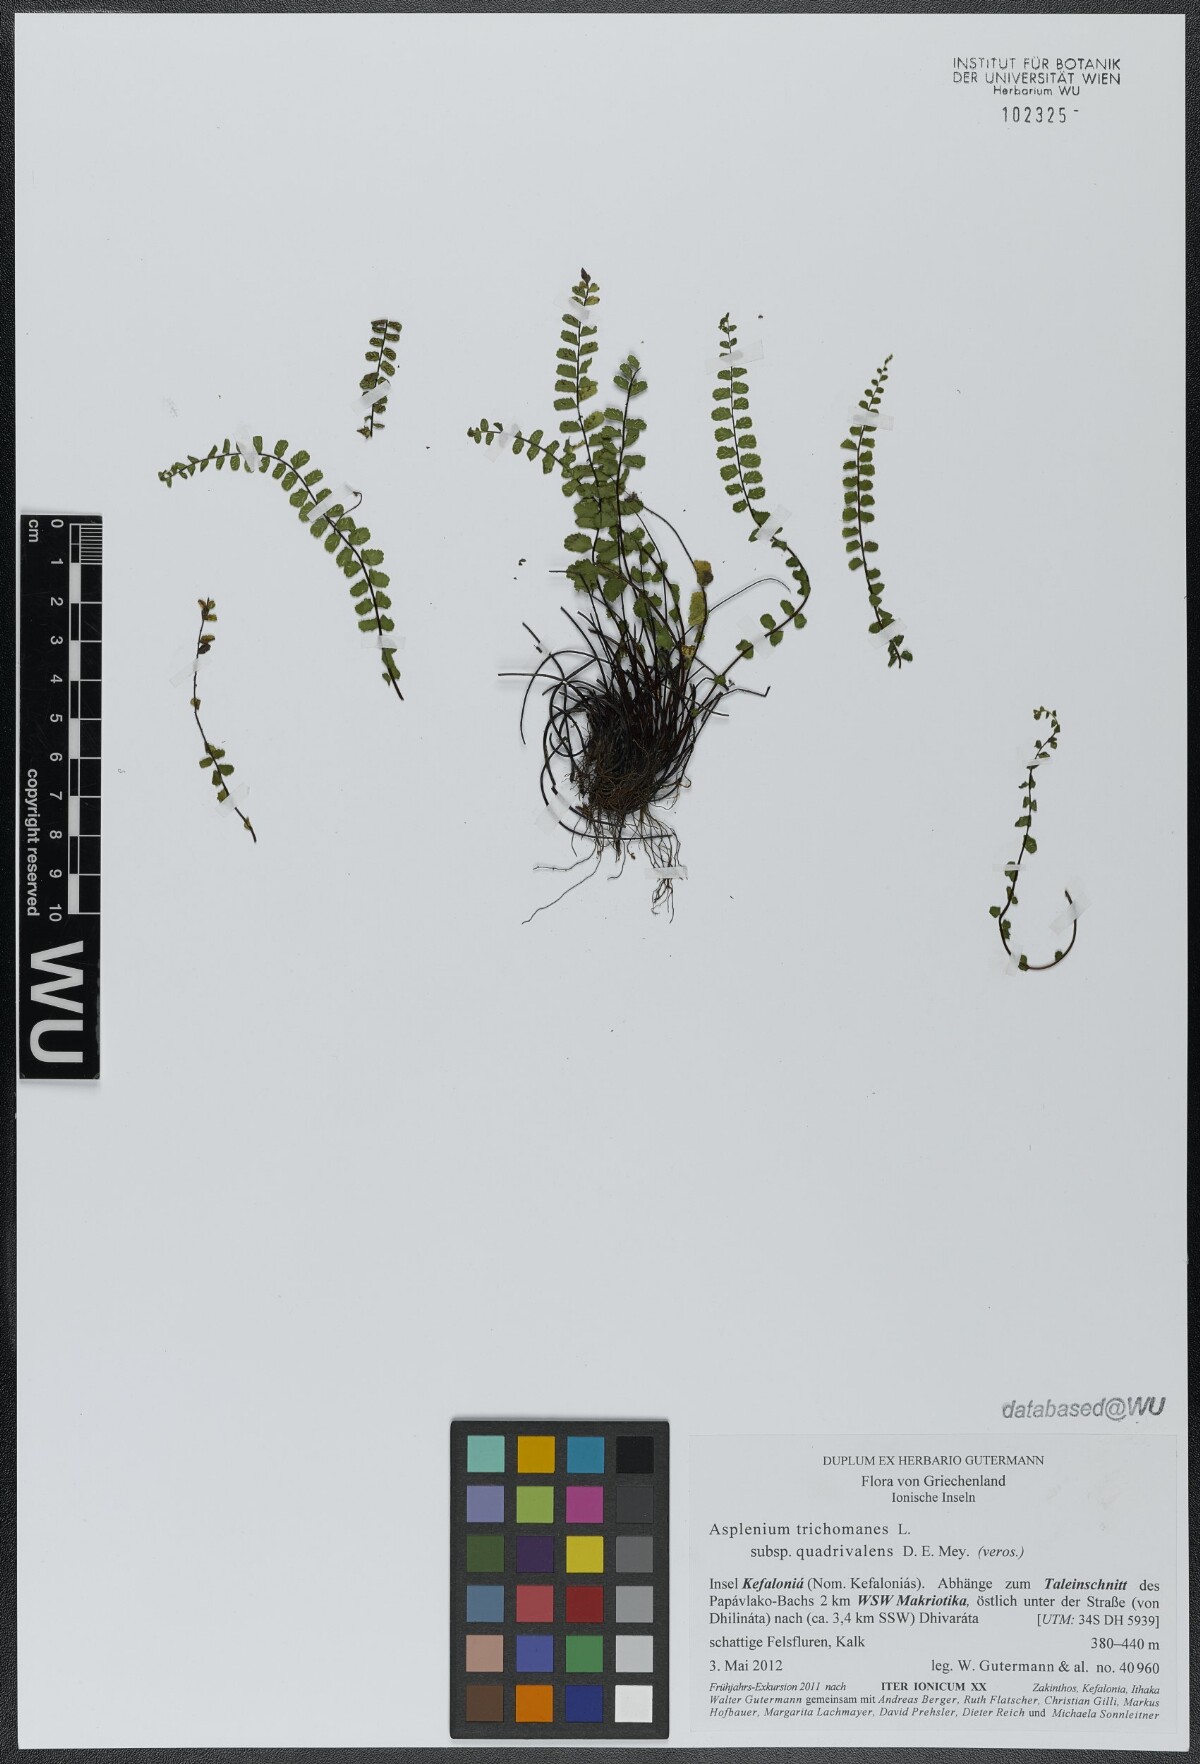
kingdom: Plantae
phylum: Tracheophyta
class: Polypodiopsida
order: Polypodiales
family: Aspleniaceae
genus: Asplenium
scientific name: Asplenium quadrivalens
